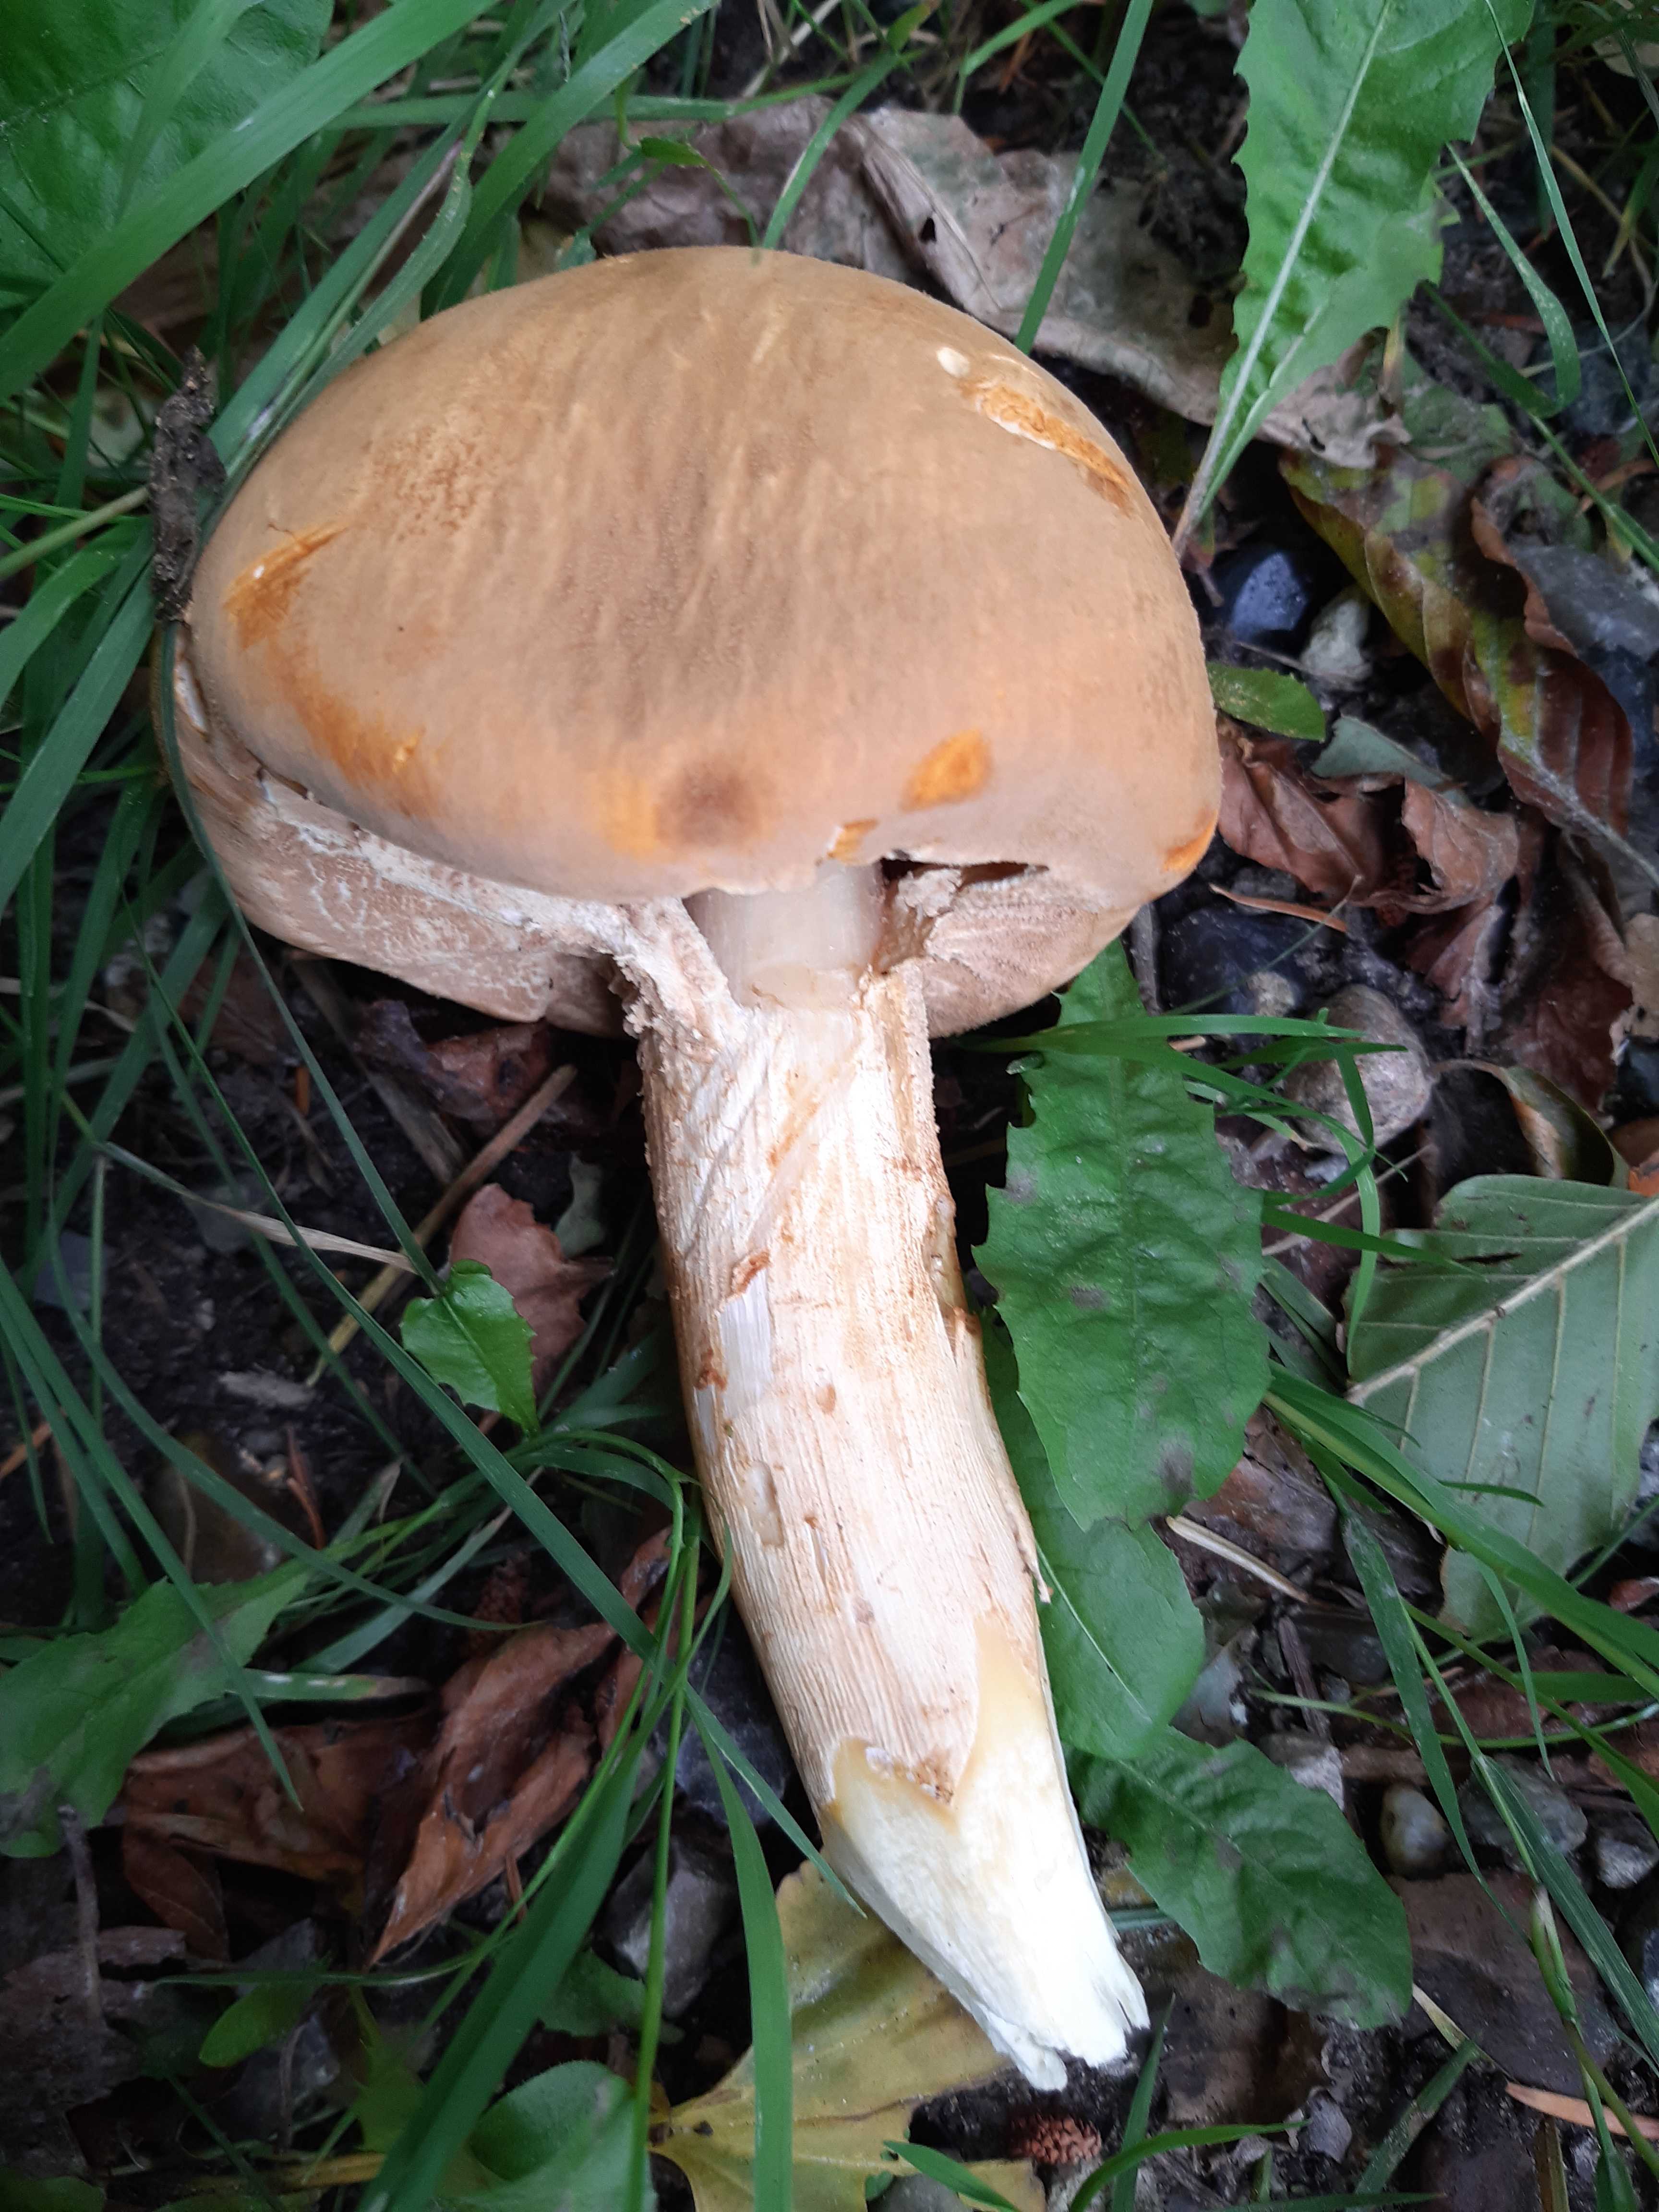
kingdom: Fungi
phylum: Basidiomycota
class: Agaricomycetes
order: Agaricales
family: Tricholomataceae
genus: Phaeolepiota
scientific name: Phaeolepiota aurea
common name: gyldenhat
